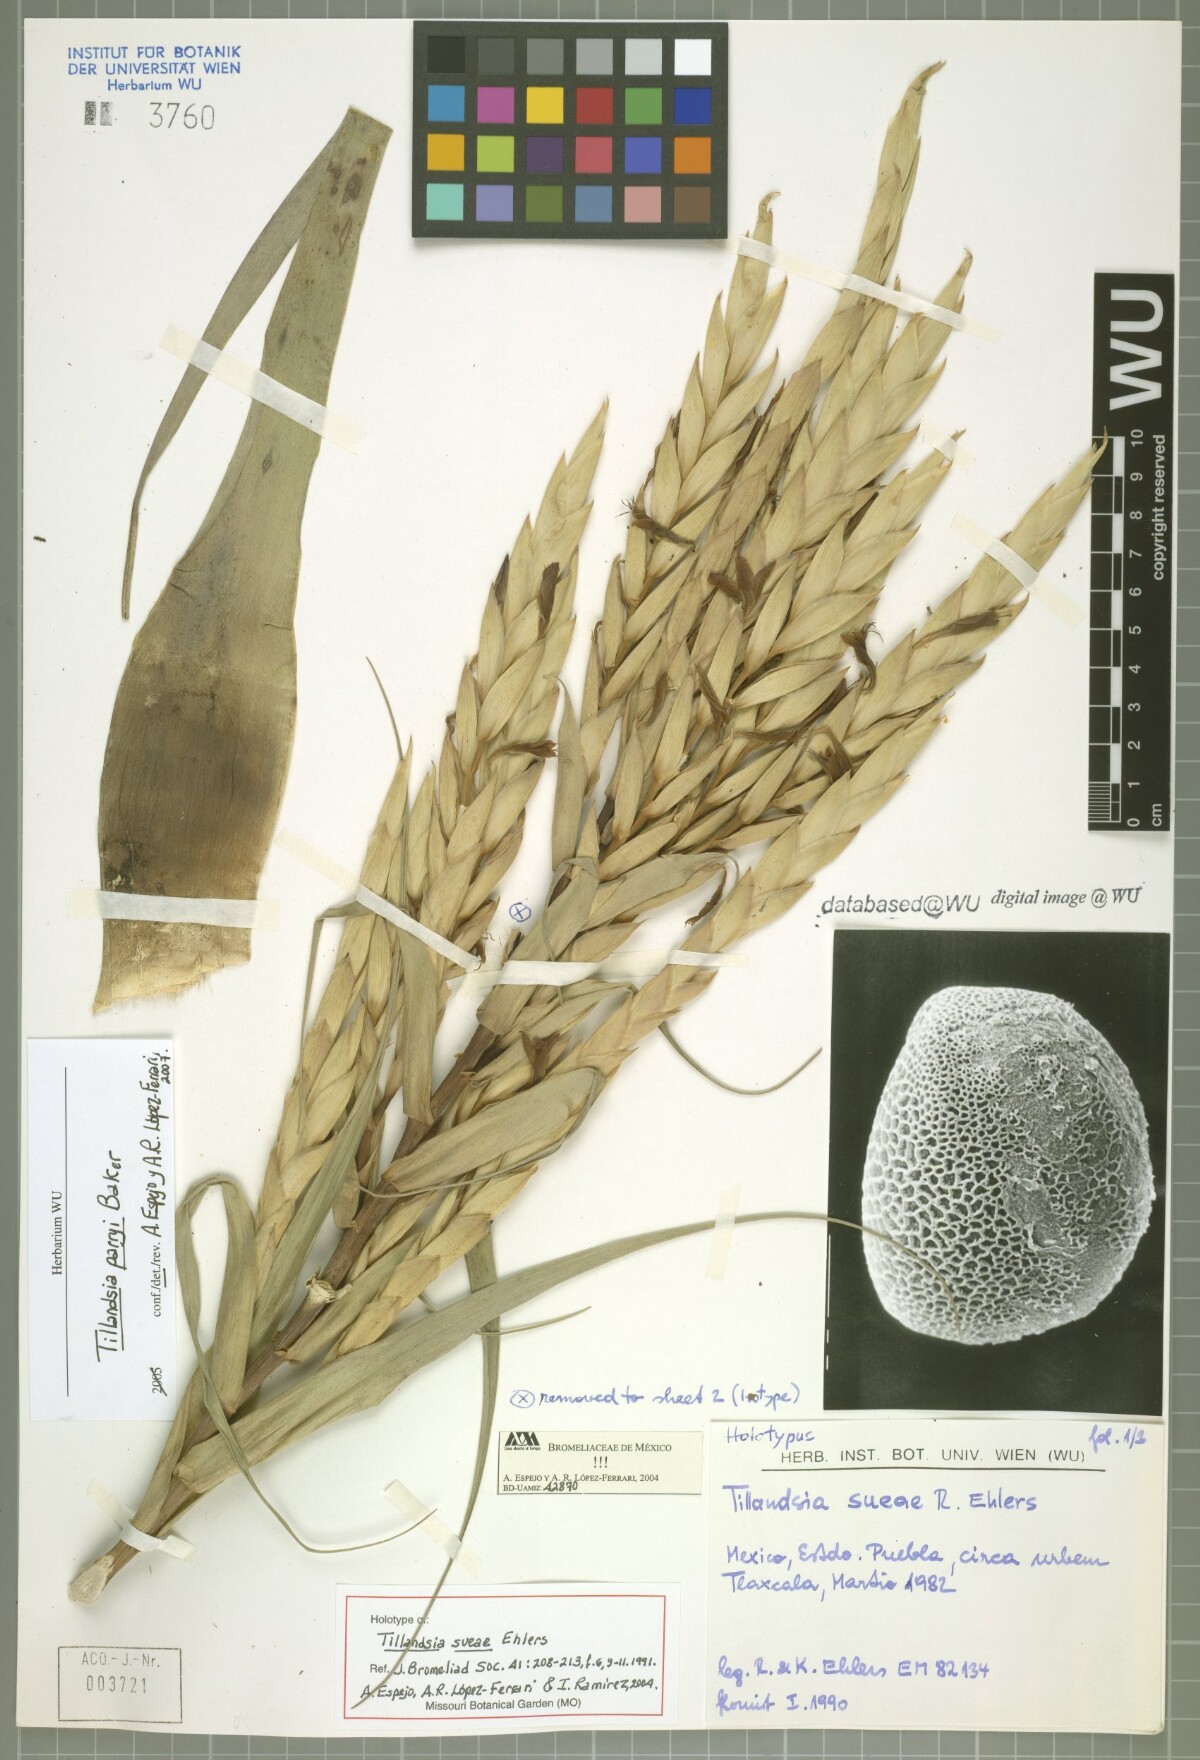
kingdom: Plantae
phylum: Tracheophyta
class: Liliopsida
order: Poales
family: Bromeliaceae
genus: Tillandsia
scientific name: Tillandsia sueae
